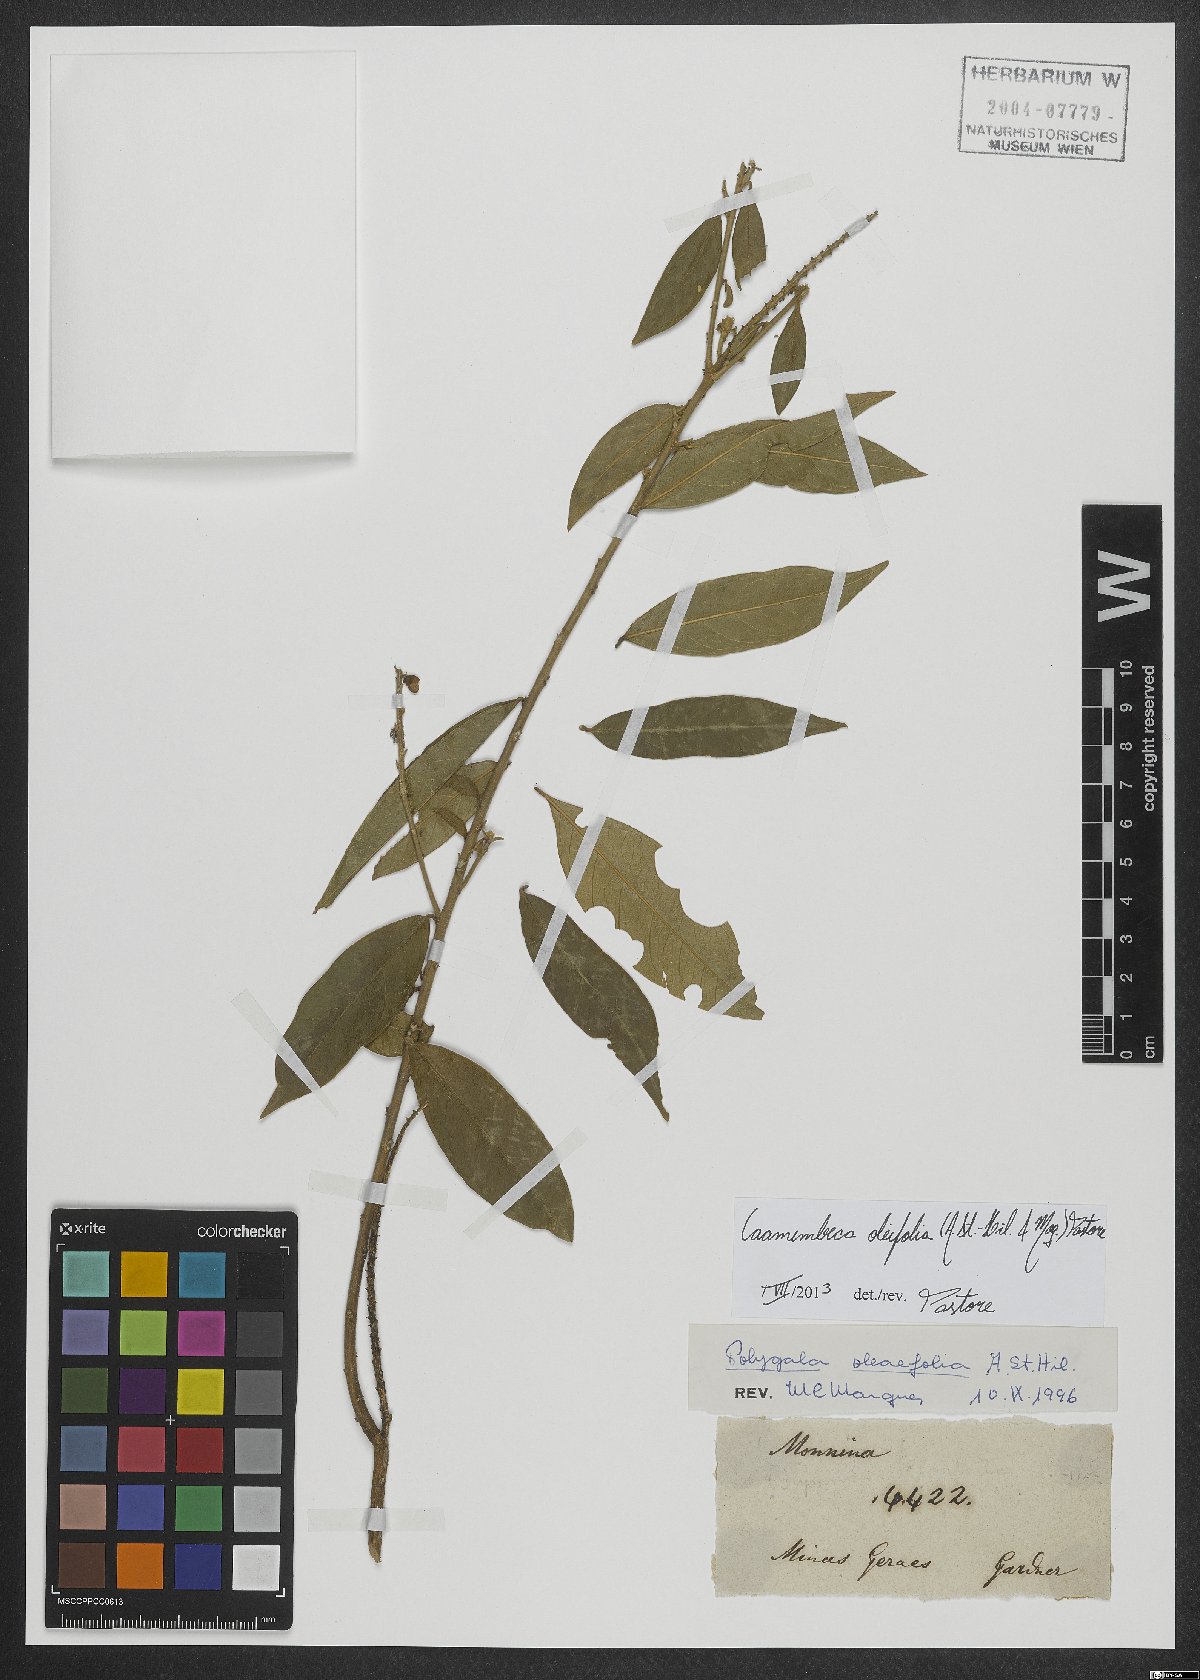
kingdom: Plantae
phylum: Tracheophyta
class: Magnoliopsida
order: Fabales
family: Polygalaceae
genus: Caamembeca
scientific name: Caamembeca oleifolia
